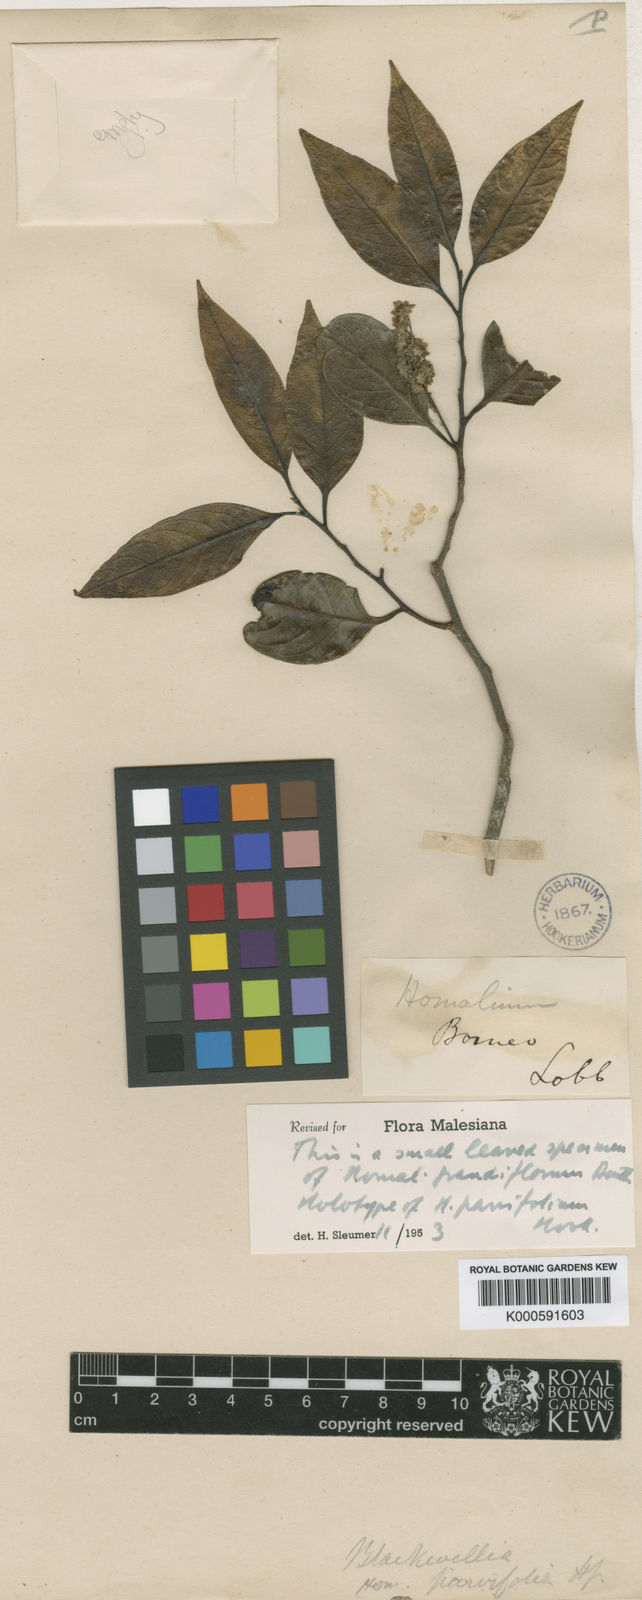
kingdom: Plantae
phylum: Tracheophyta
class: Magnoliopsida
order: Malpighiales
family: Salicaceae
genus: Homalium
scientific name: Homalium grandiflorum
